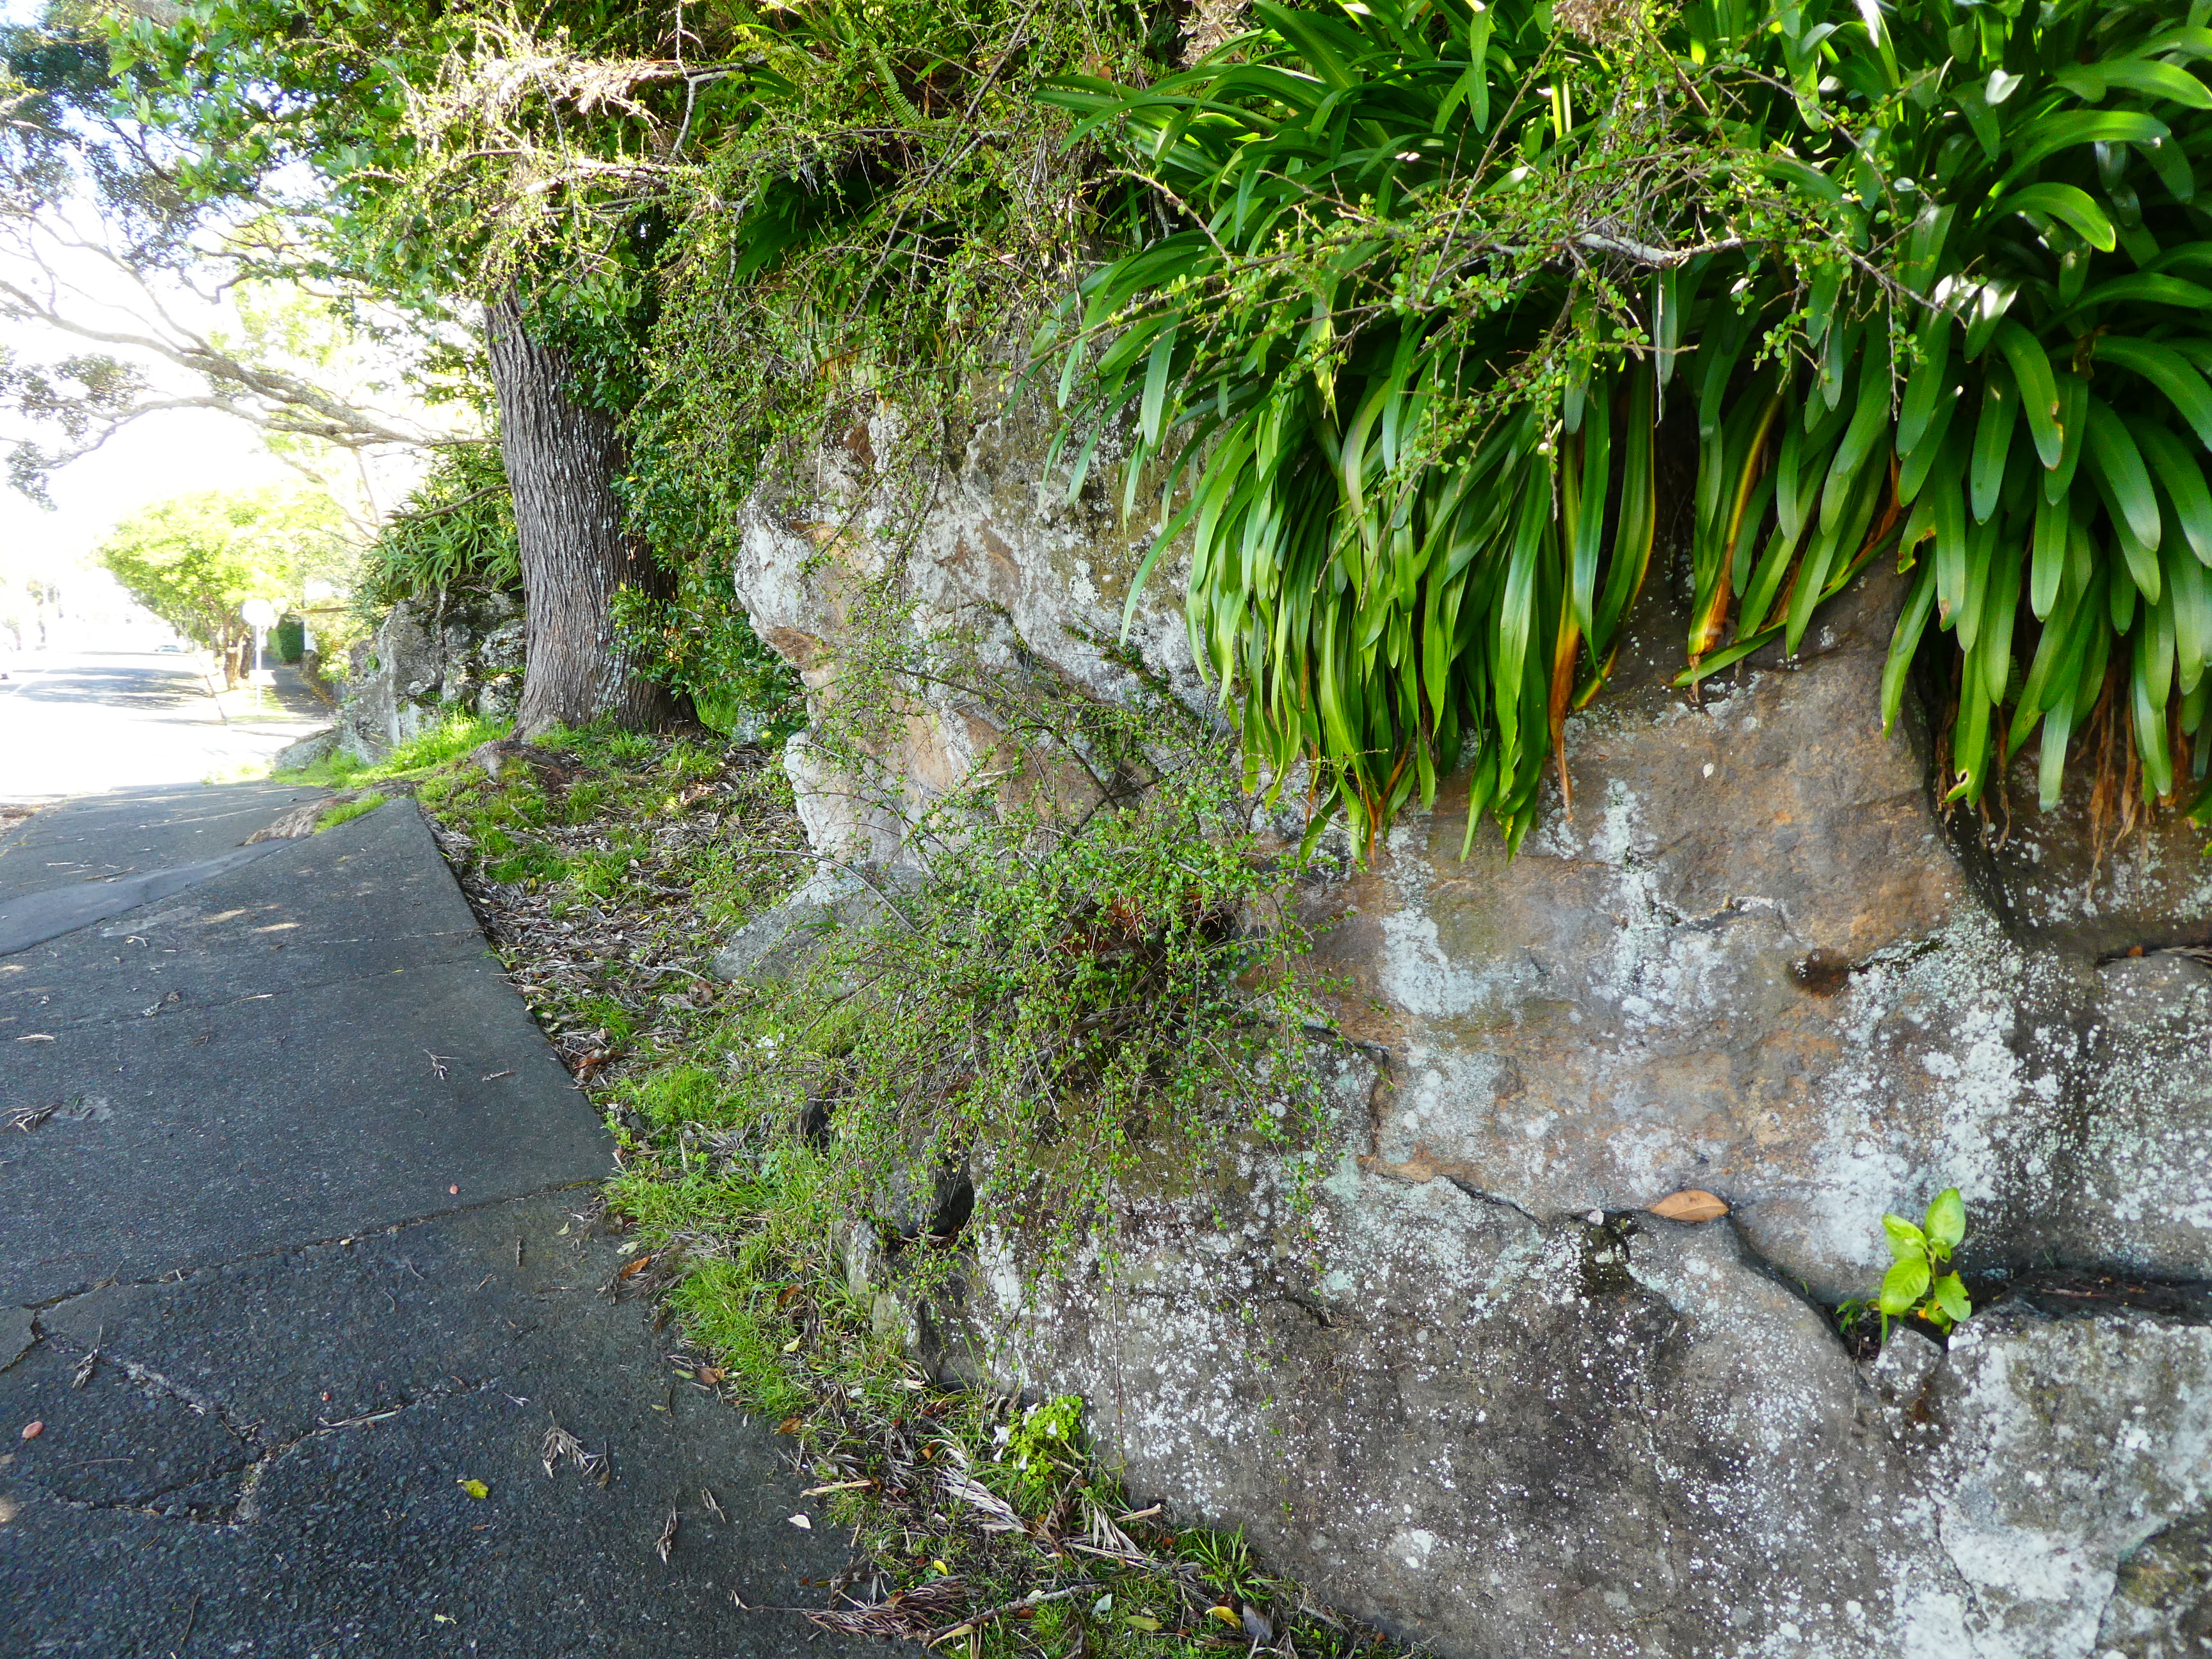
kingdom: Plantae
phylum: Tracheophyta
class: Magnoliopsida
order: Rosales
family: Rosaceae
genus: Cotoneaster
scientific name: Cotoneaster horizontalis
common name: Wall cotoneaster
